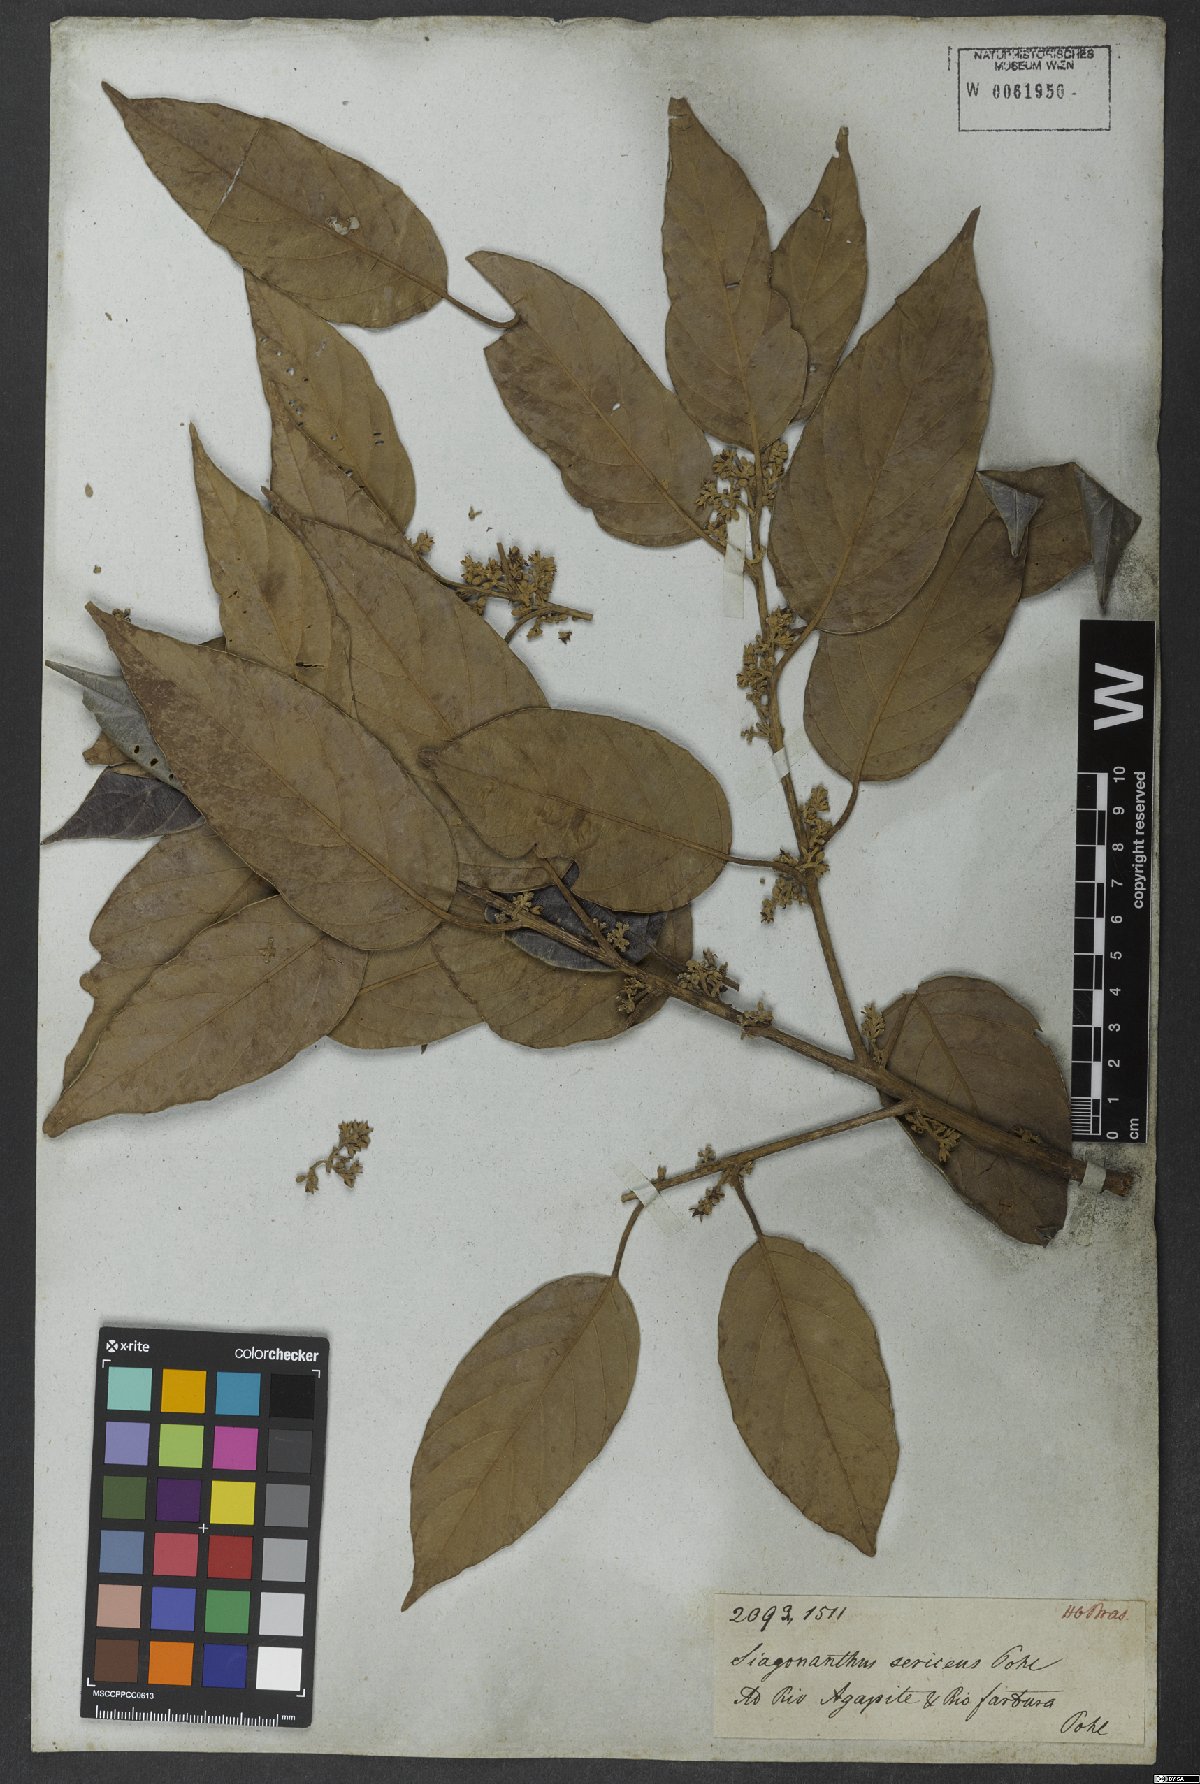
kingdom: Plantae
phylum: Tracheophyta
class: Magnoliopsida
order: Metteniusales
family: Metteniusaceae
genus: Emmotum
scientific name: Emmotum nitens
